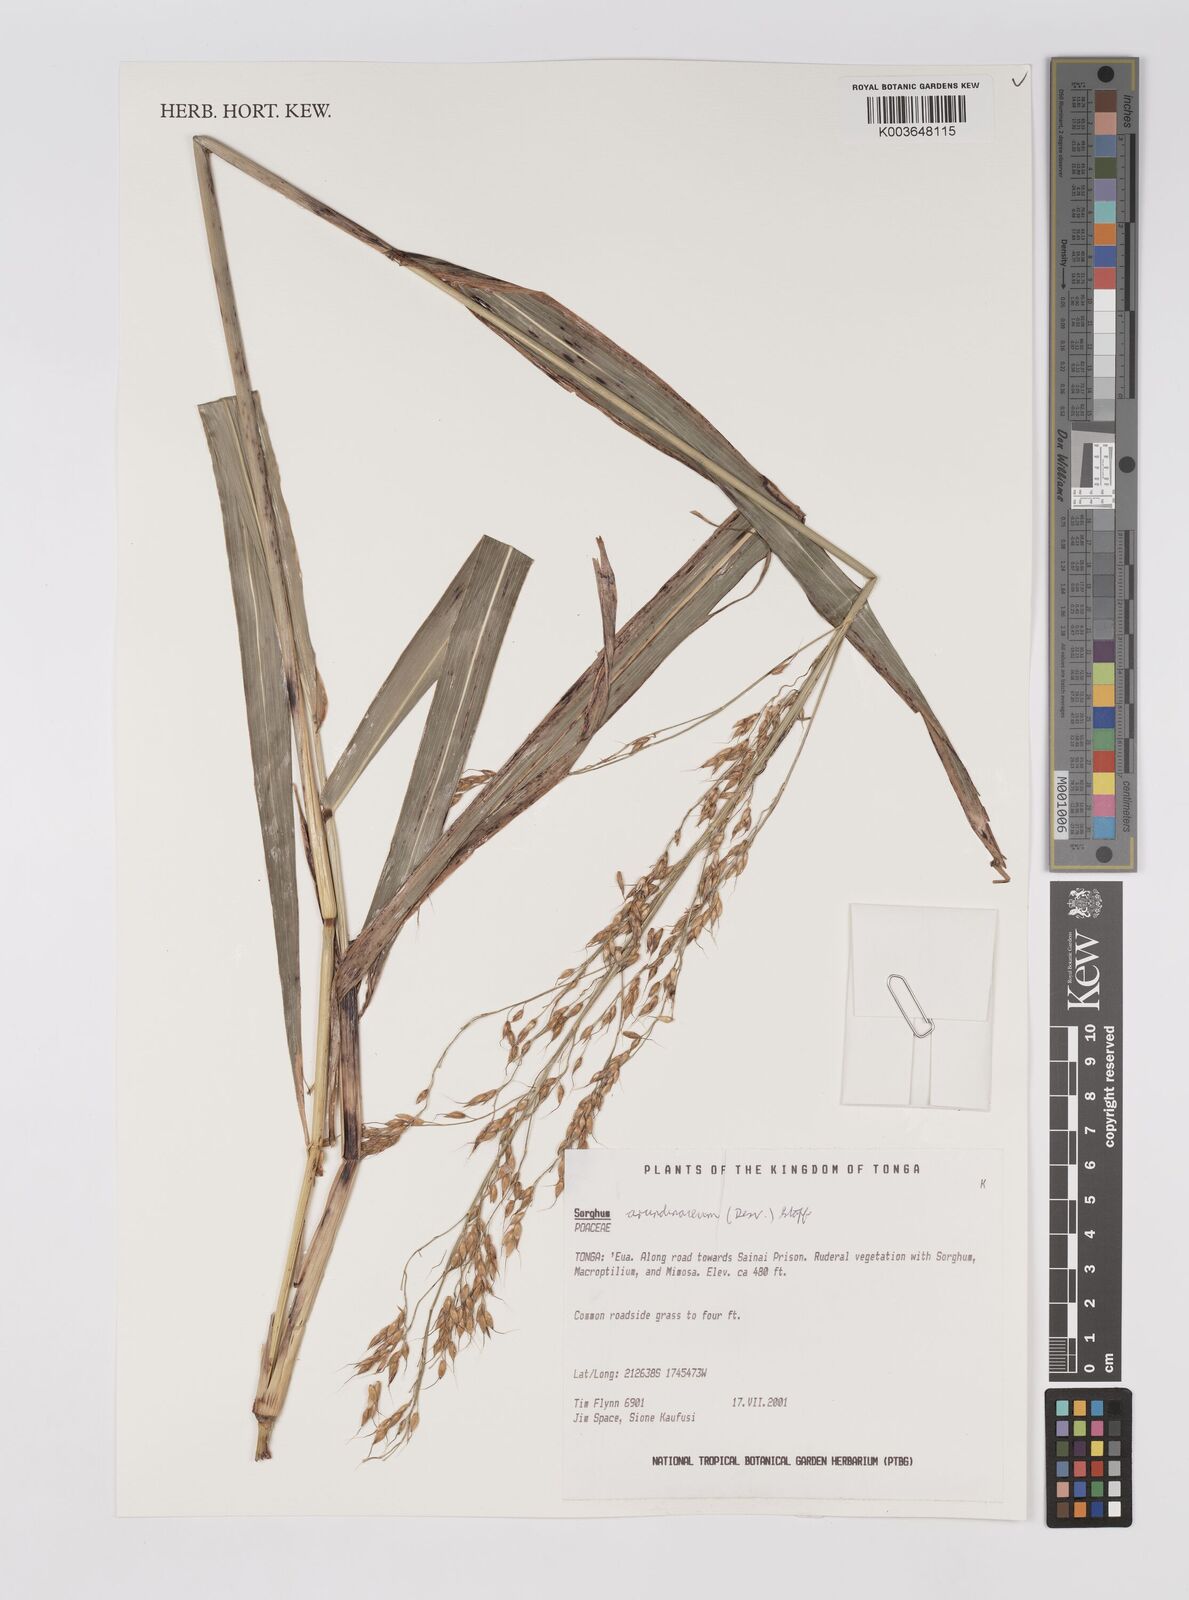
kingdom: Plantae
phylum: Tracheophyta
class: Liliopsida
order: Poales
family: Poaceae
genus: Sorghum
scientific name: Sorghum arundinaceum
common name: Sorghum
